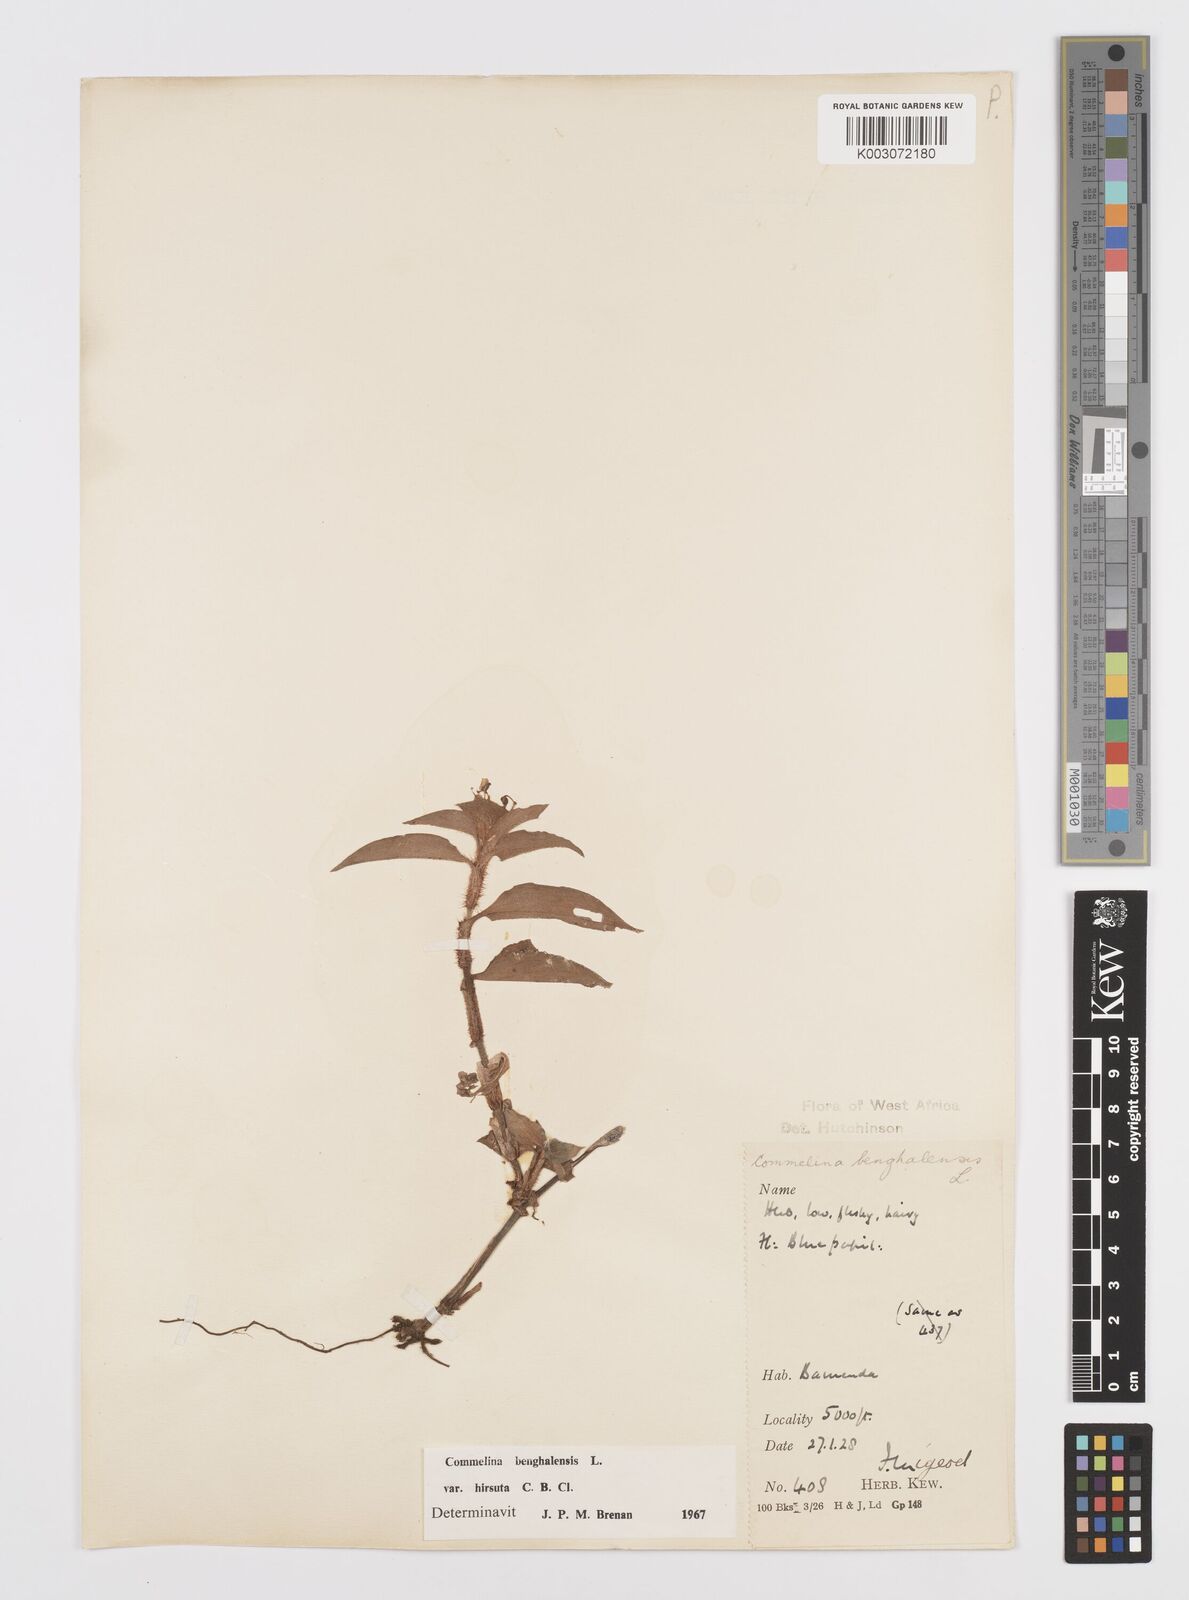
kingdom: Plantae
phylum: Tracheophyta
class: Liliopsida
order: Commelinales
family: Commelinaceae
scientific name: Commelinaceae
